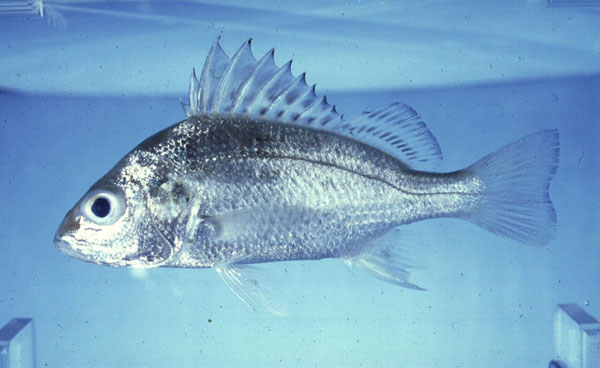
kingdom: Animalia
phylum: Chordata
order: Perciformes
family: Haemulidae
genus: Pomadasys
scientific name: Pomadasys kaakan
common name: Javelin grunter
